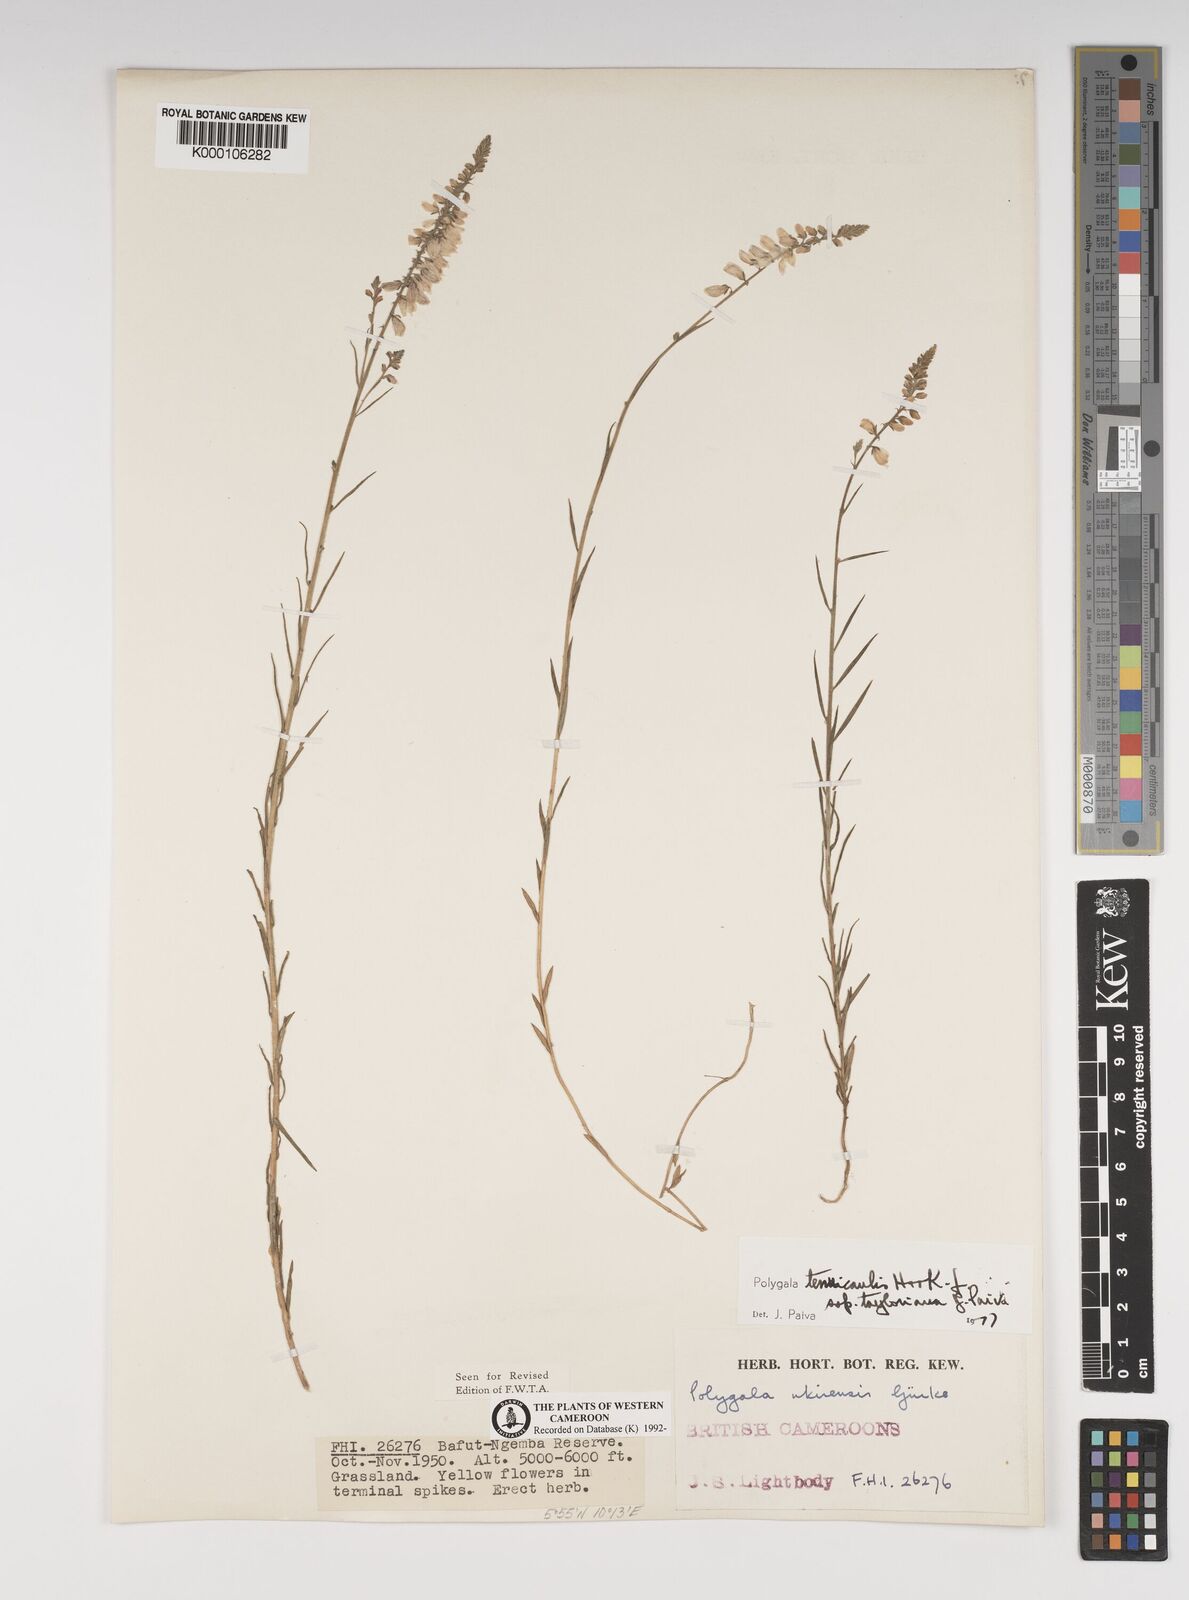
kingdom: Plantae
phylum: Tracheophyta
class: Magnoliopsida
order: Fabales
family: Polygalaceae
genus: Polygala
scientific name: Polygala tenuicaulis
